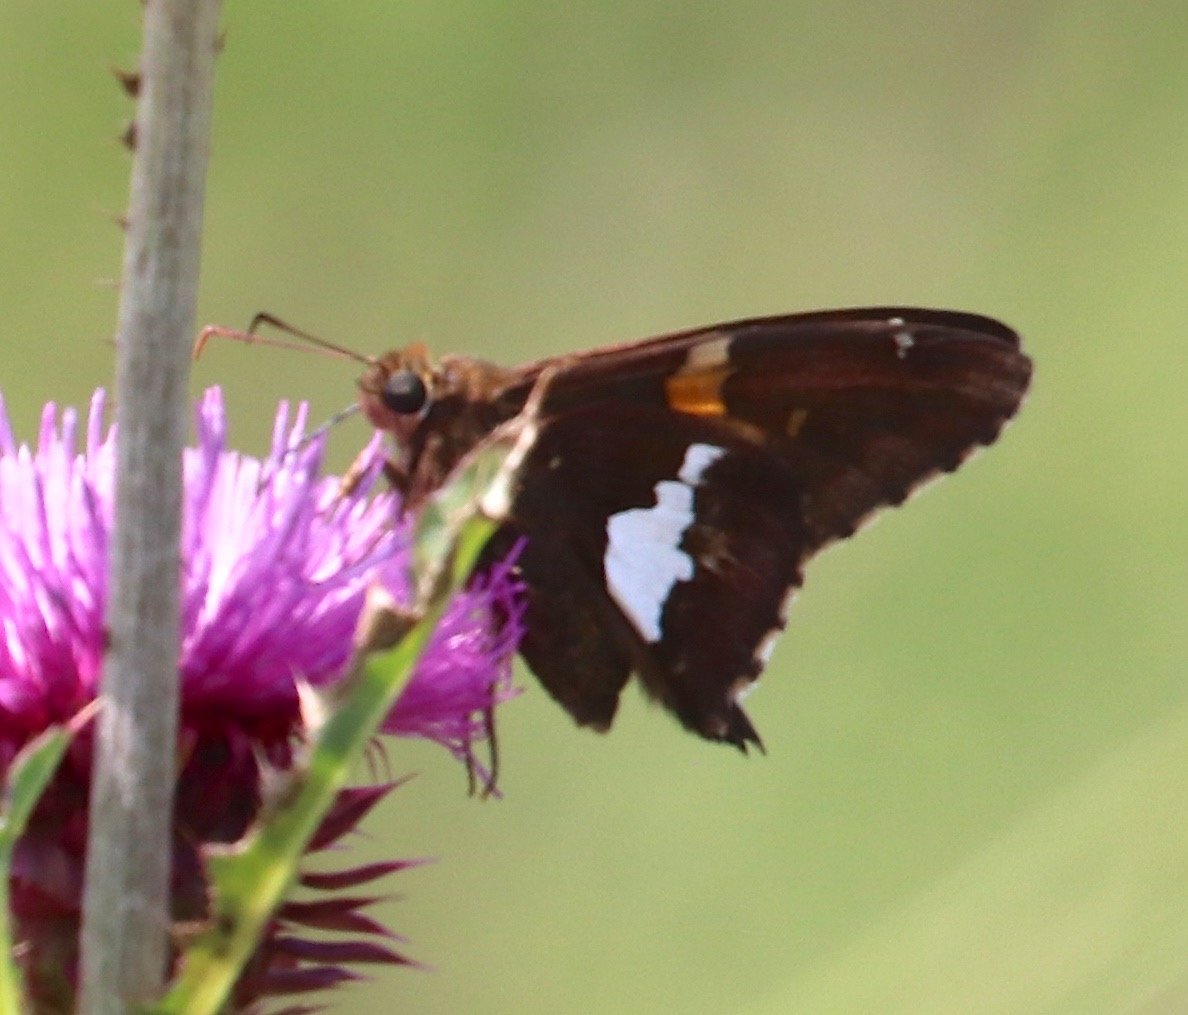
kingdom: Animalia
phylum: Arthropoda
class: Insecta
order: Lepidoptera
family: Hesperiidae
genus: Epargyreus
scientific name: Epargyreus clarus
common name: Silver-spotted Skipper
